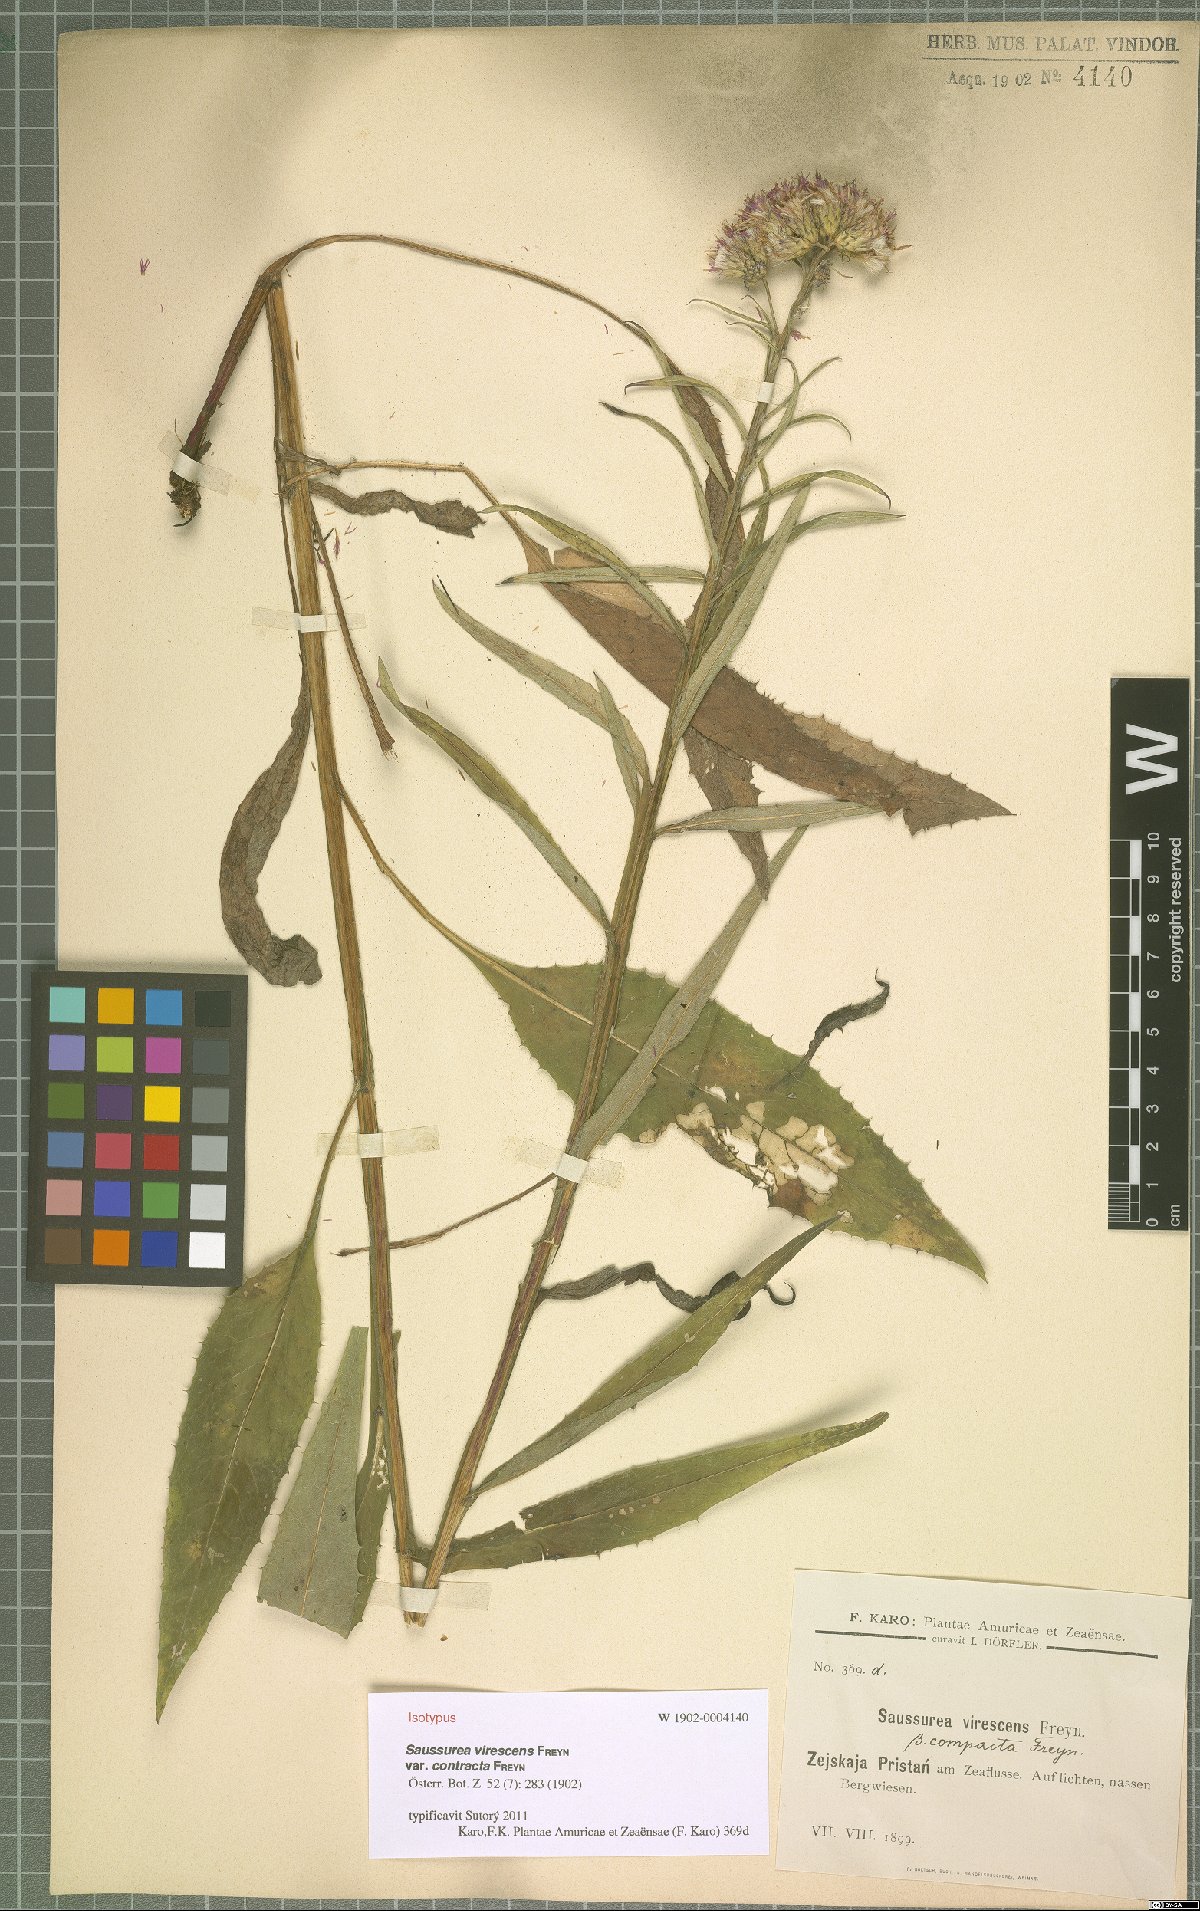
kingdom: Plantae
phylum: Tracheophyta
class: Magnoliopsida
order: Asterales
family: Asteraceae
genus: Saussurea
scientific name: Saussurea virescens
